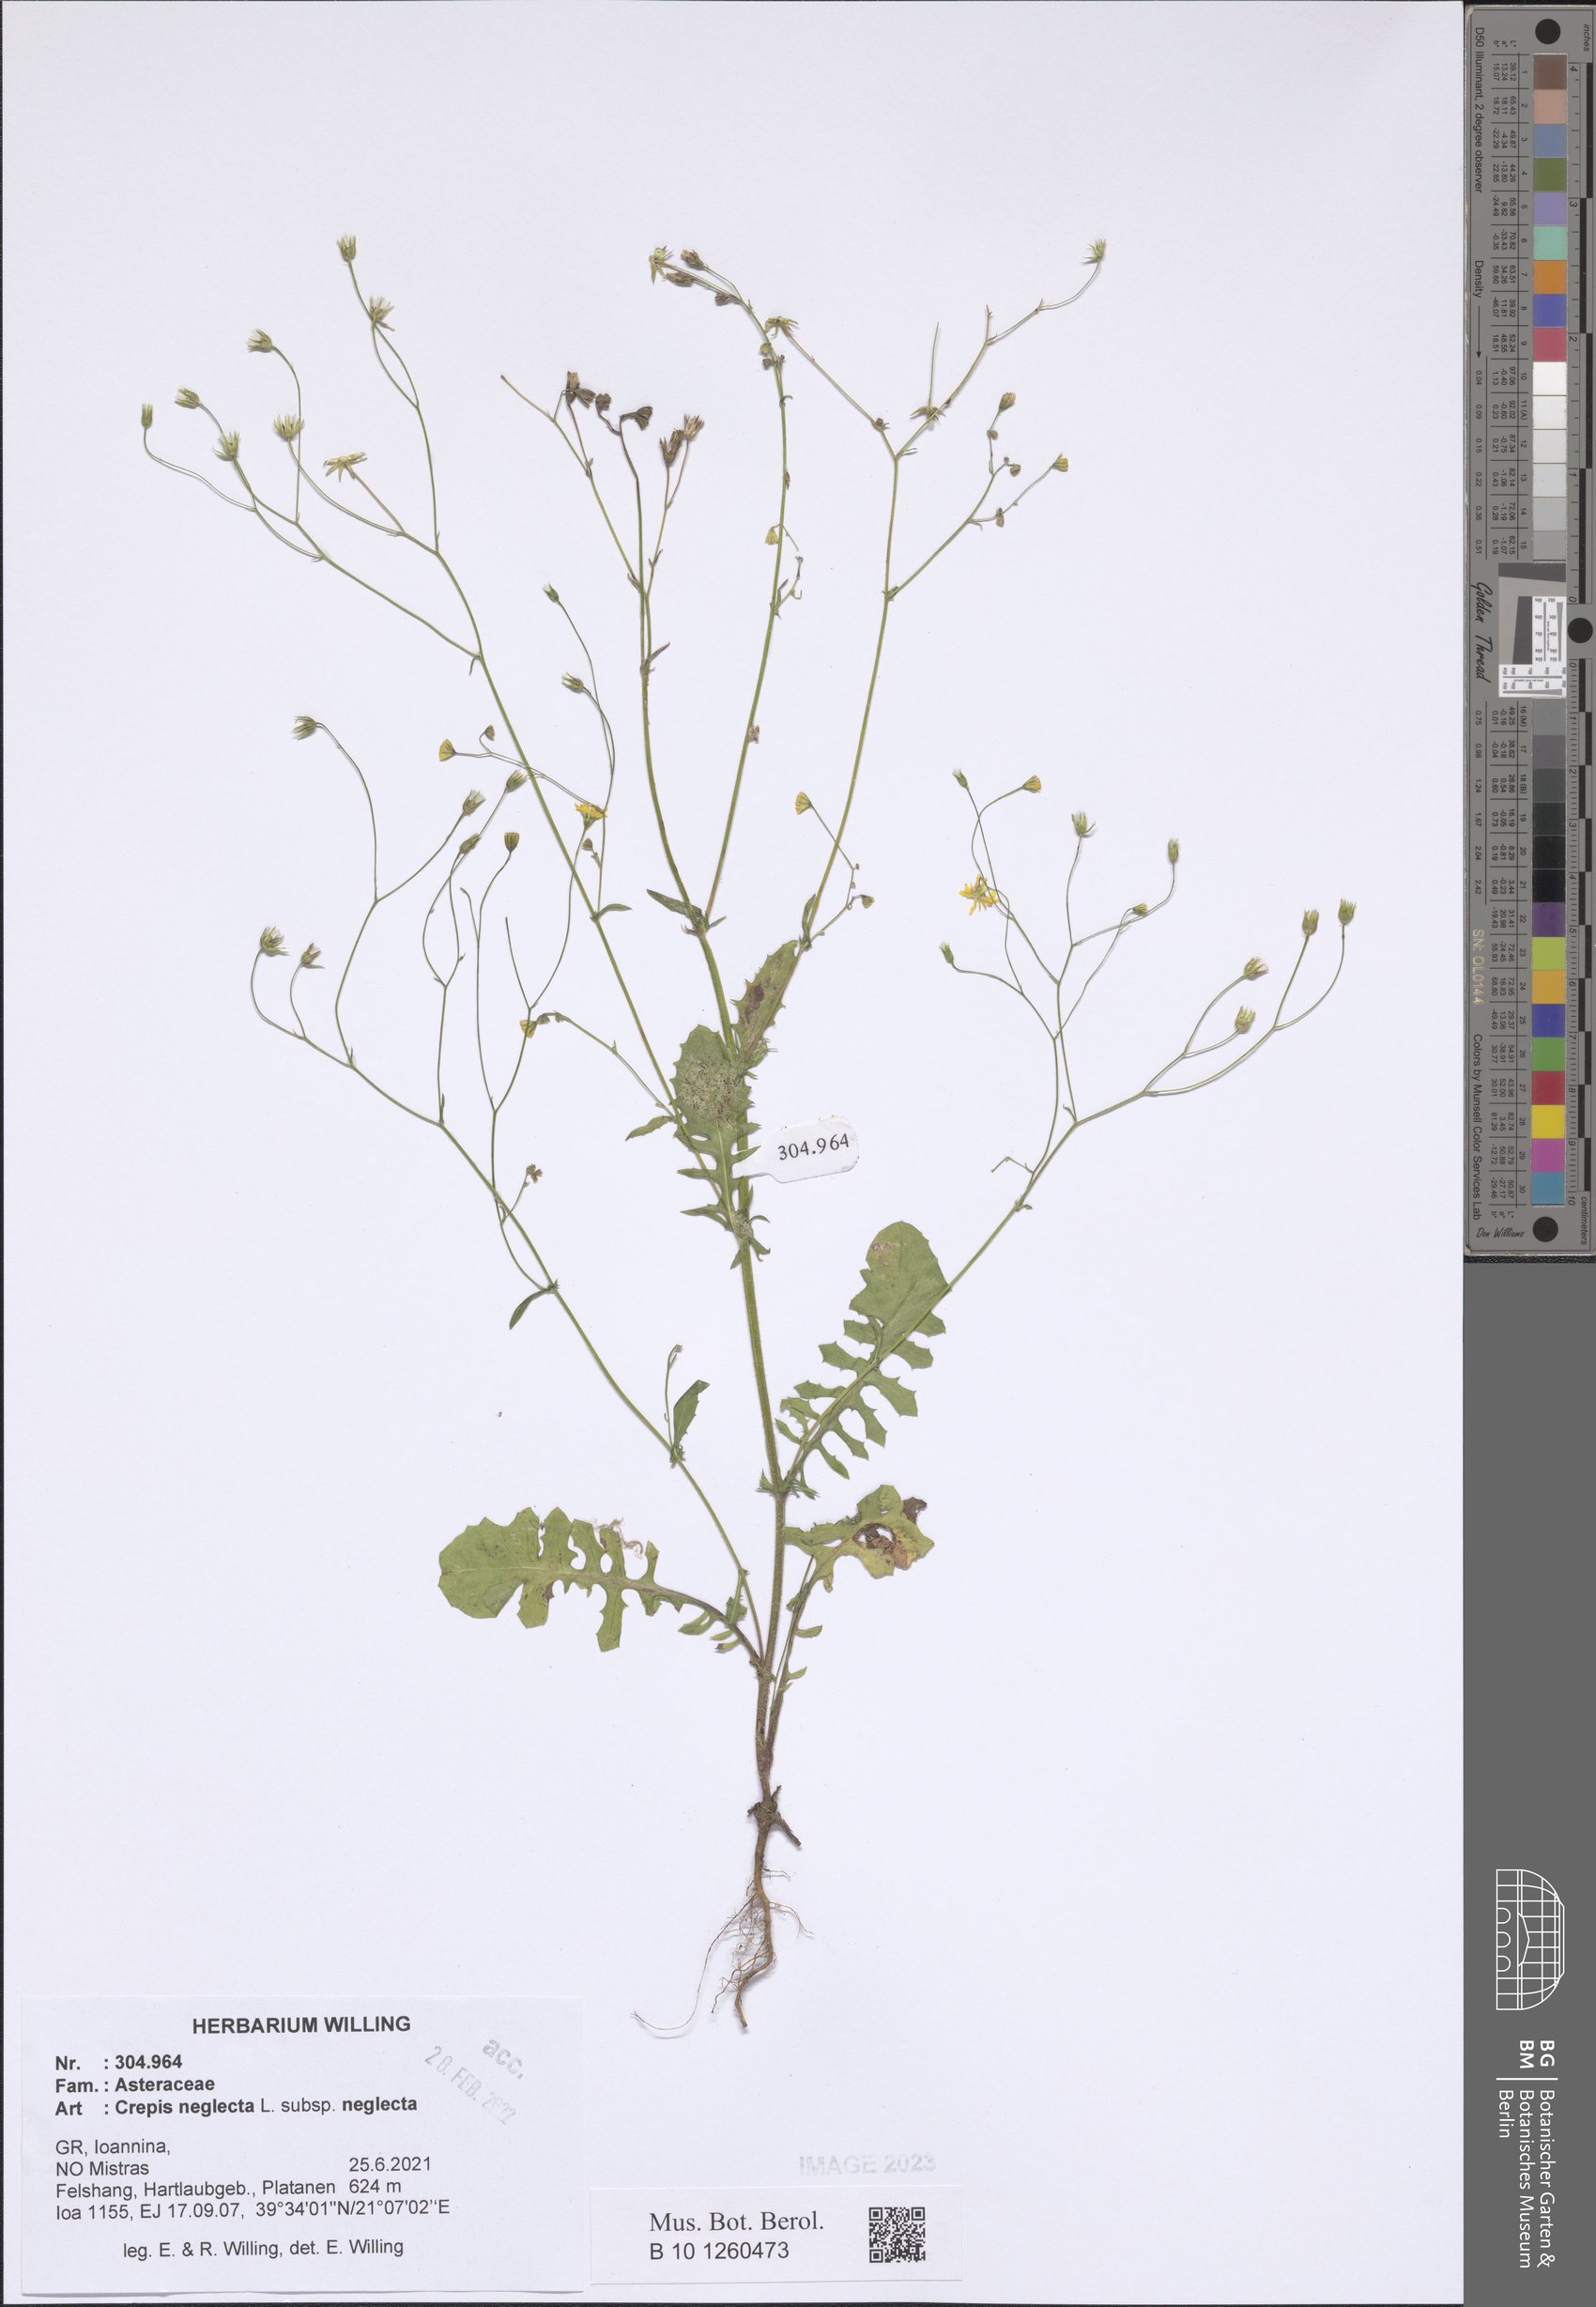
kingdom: Plantae
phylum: Tracheophyta
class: Magnoliopsida
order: Asterales
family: Asteraceae
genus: Crepis
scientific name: Crepis neglecta
